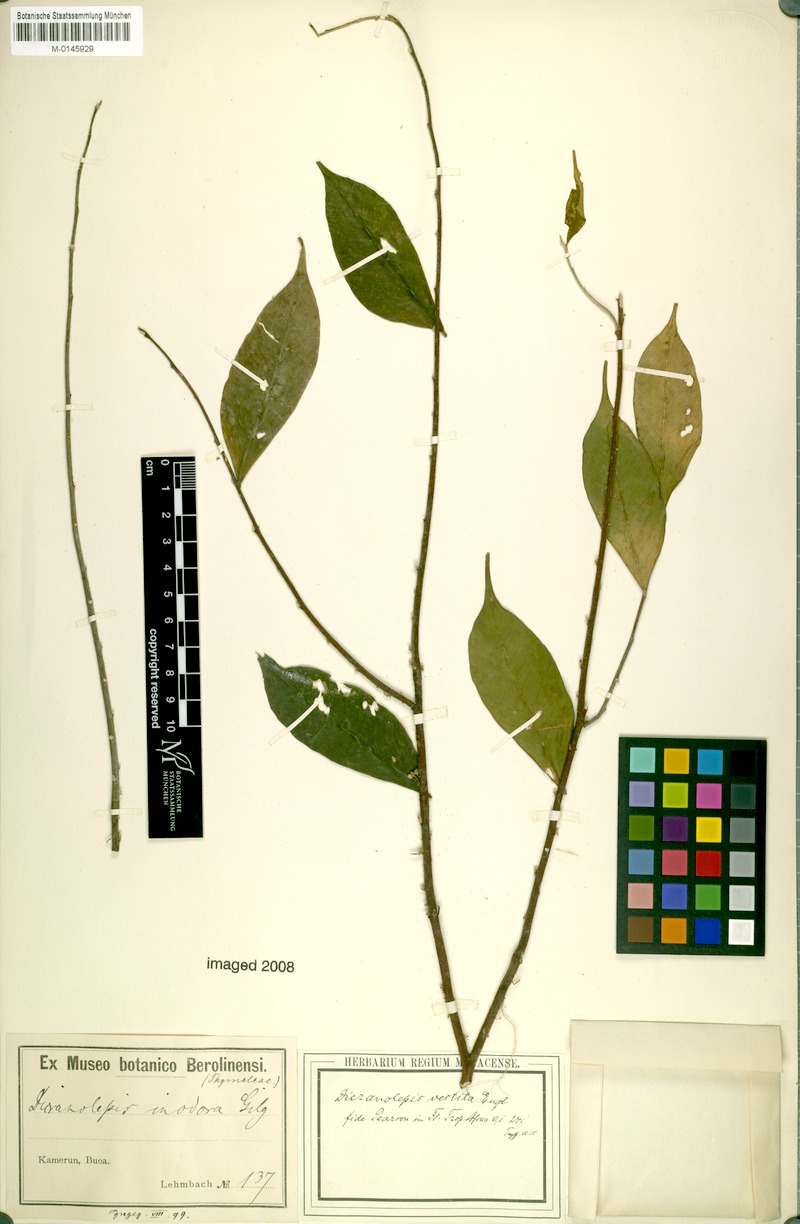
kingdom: Plantae
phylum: Tracheophyta
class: Magnoliopsida
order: Malvales
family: Thymelaeaceae
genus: Dicranolepis
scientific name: Dicranolepis vestita
